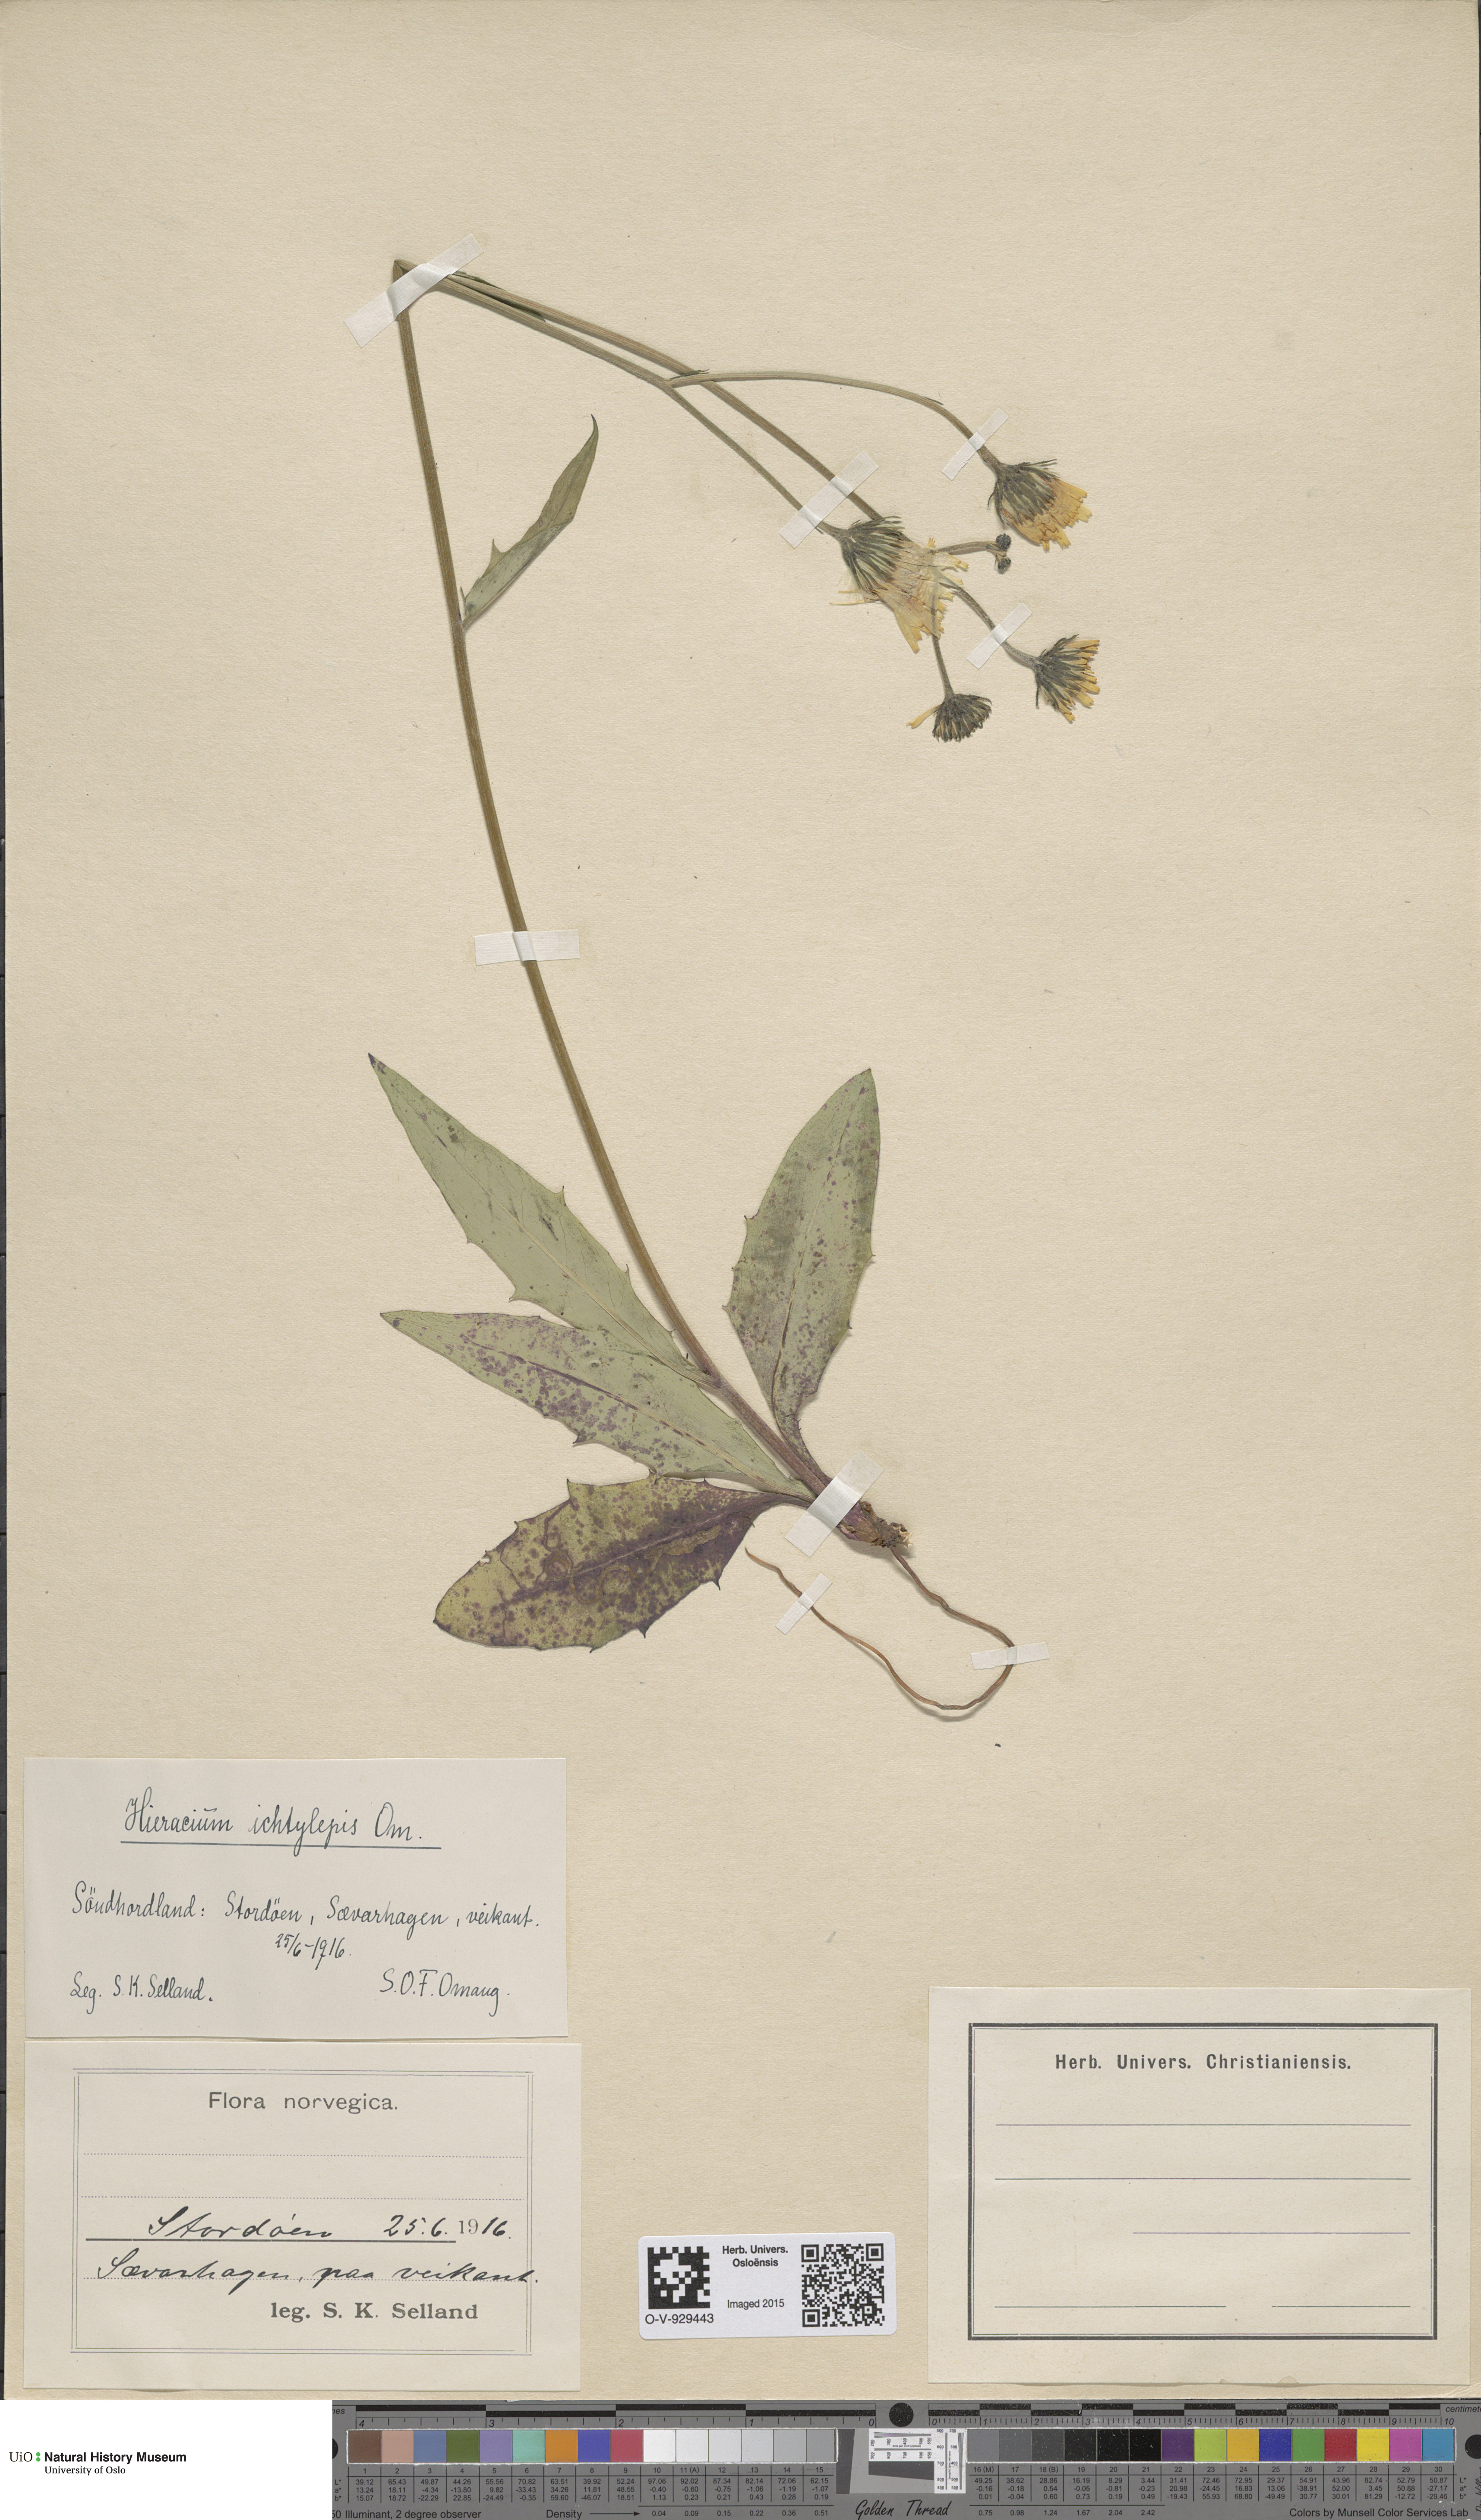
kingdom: Plantae
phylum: Tracheophyta
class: Magnoliopsida
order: Asterales
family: Asteraceae
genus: Hieracium
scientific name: Hieracium
